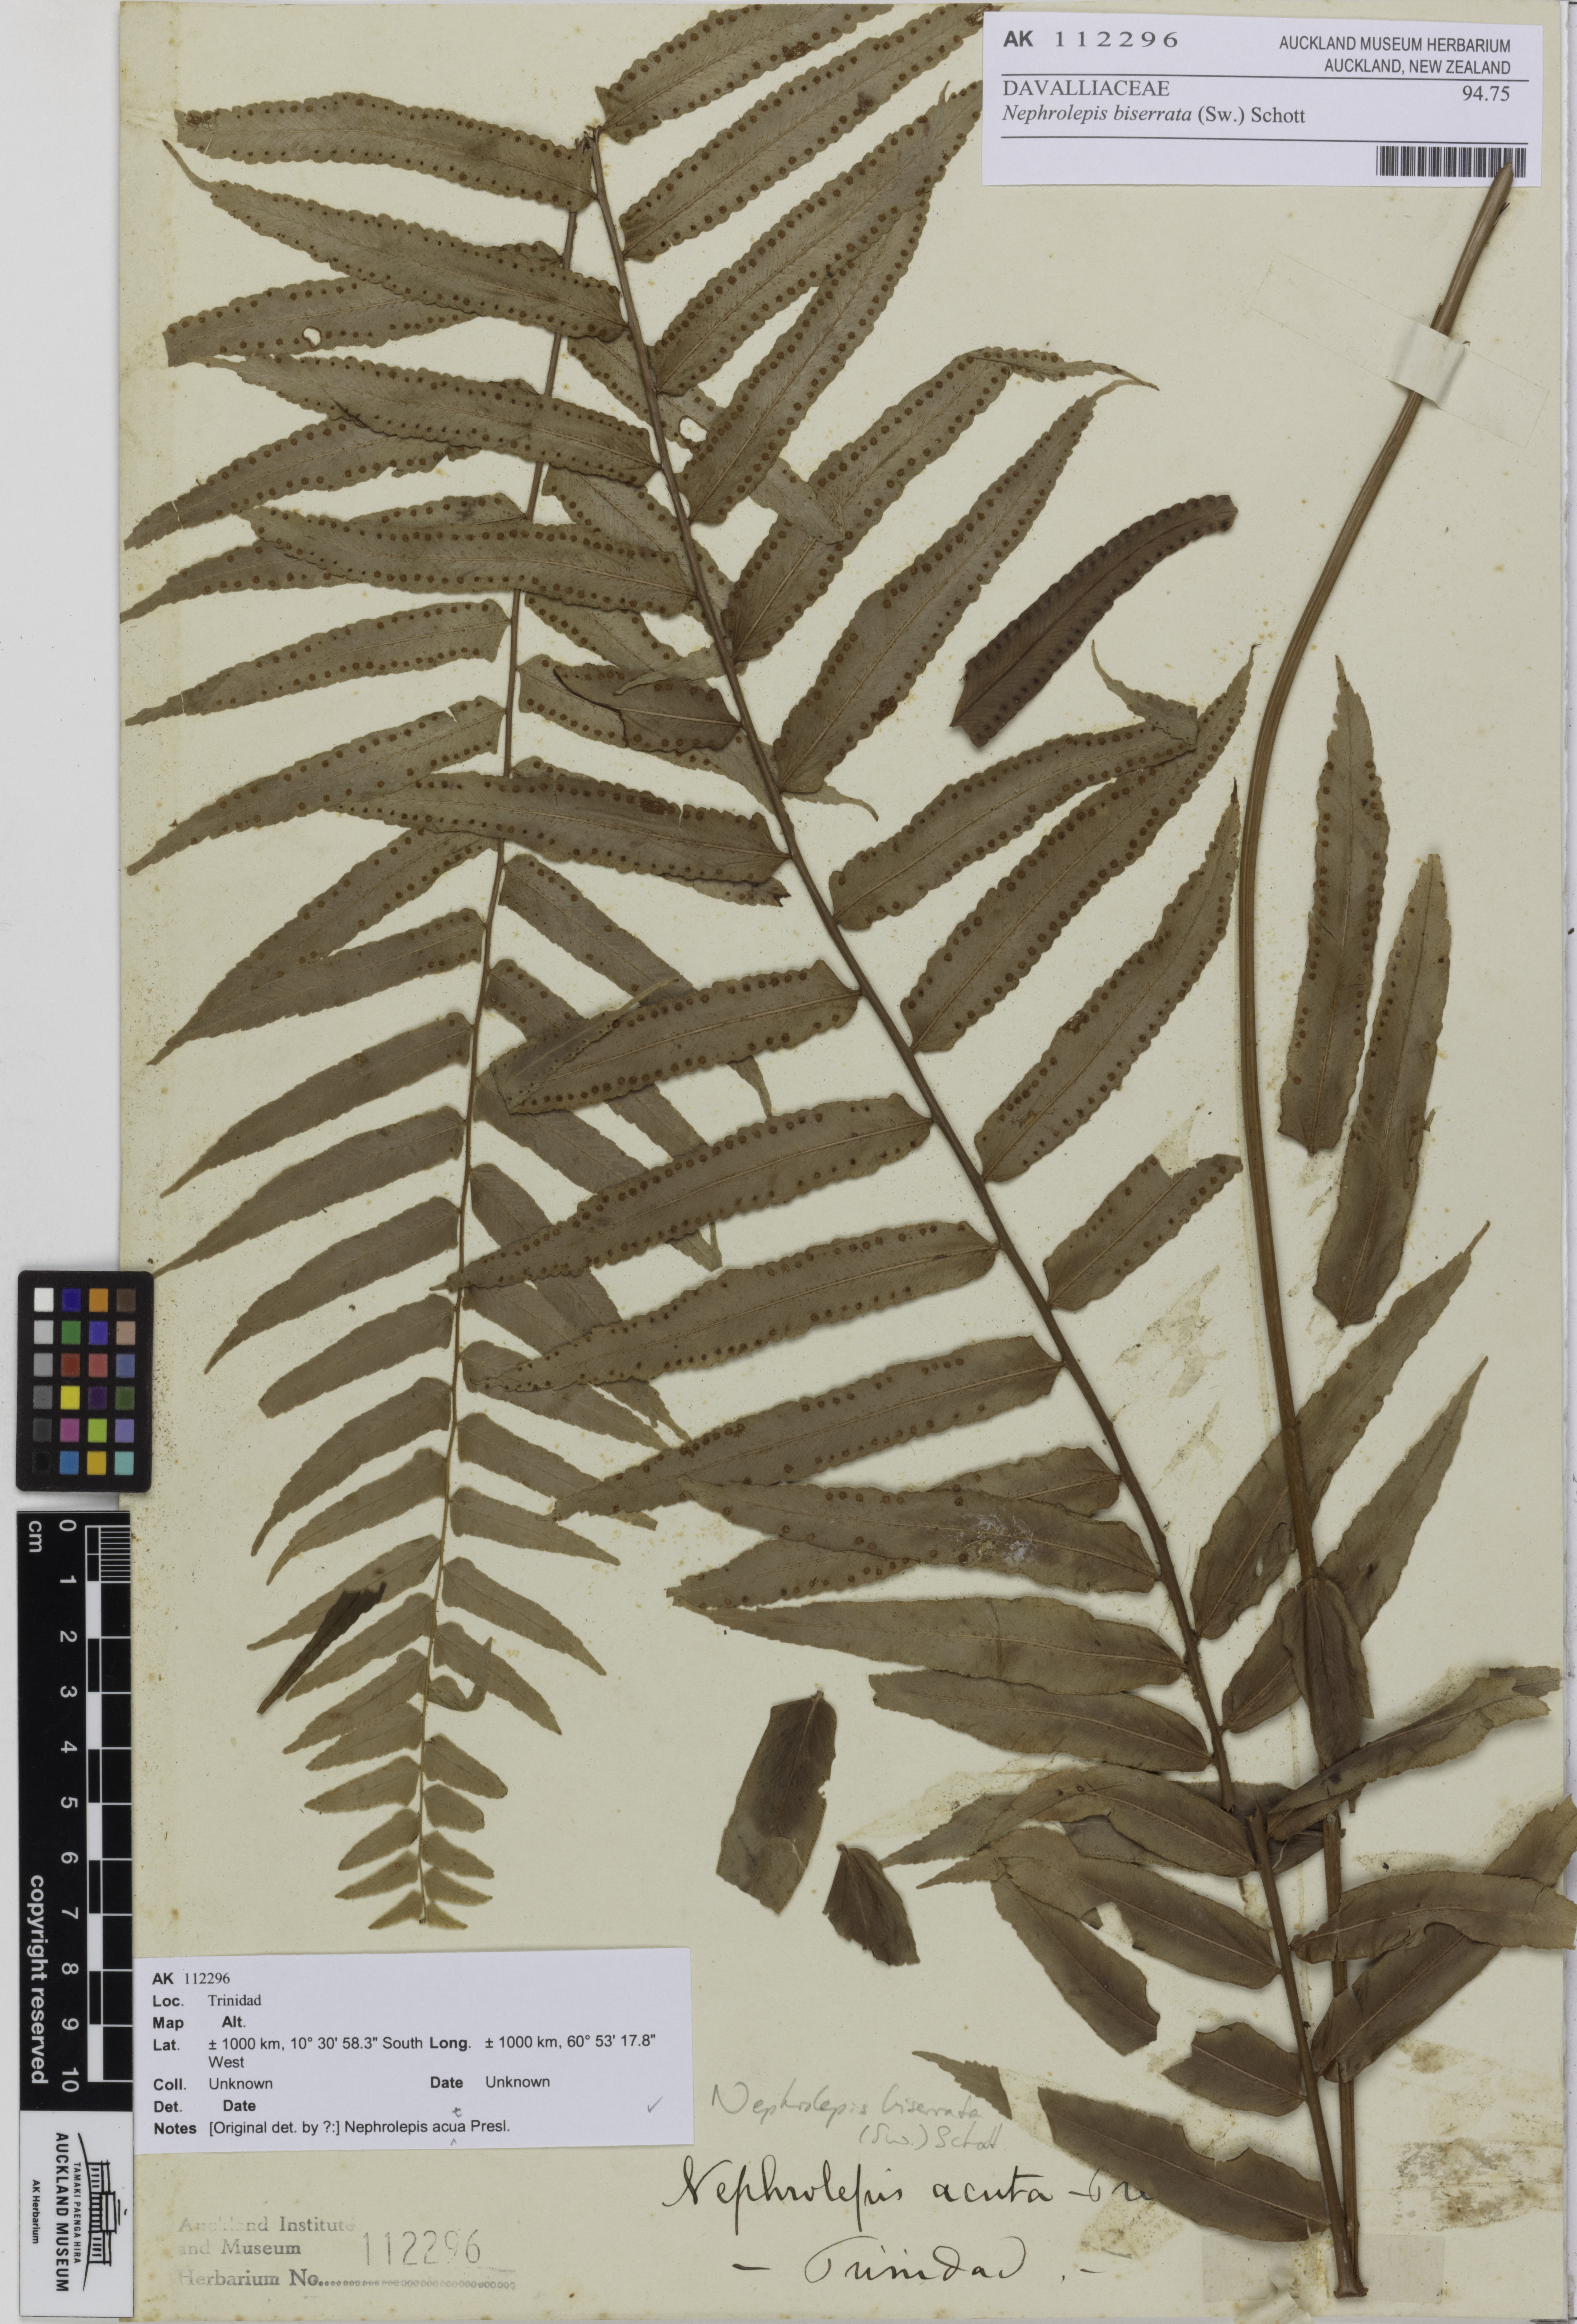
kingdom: Plantae
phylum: Tracheophyta
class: Polypodiopsida
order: Polypodiales
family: Nephrolepidaceae
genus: Nephrolepis
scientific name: Nephrolepis biserrata
